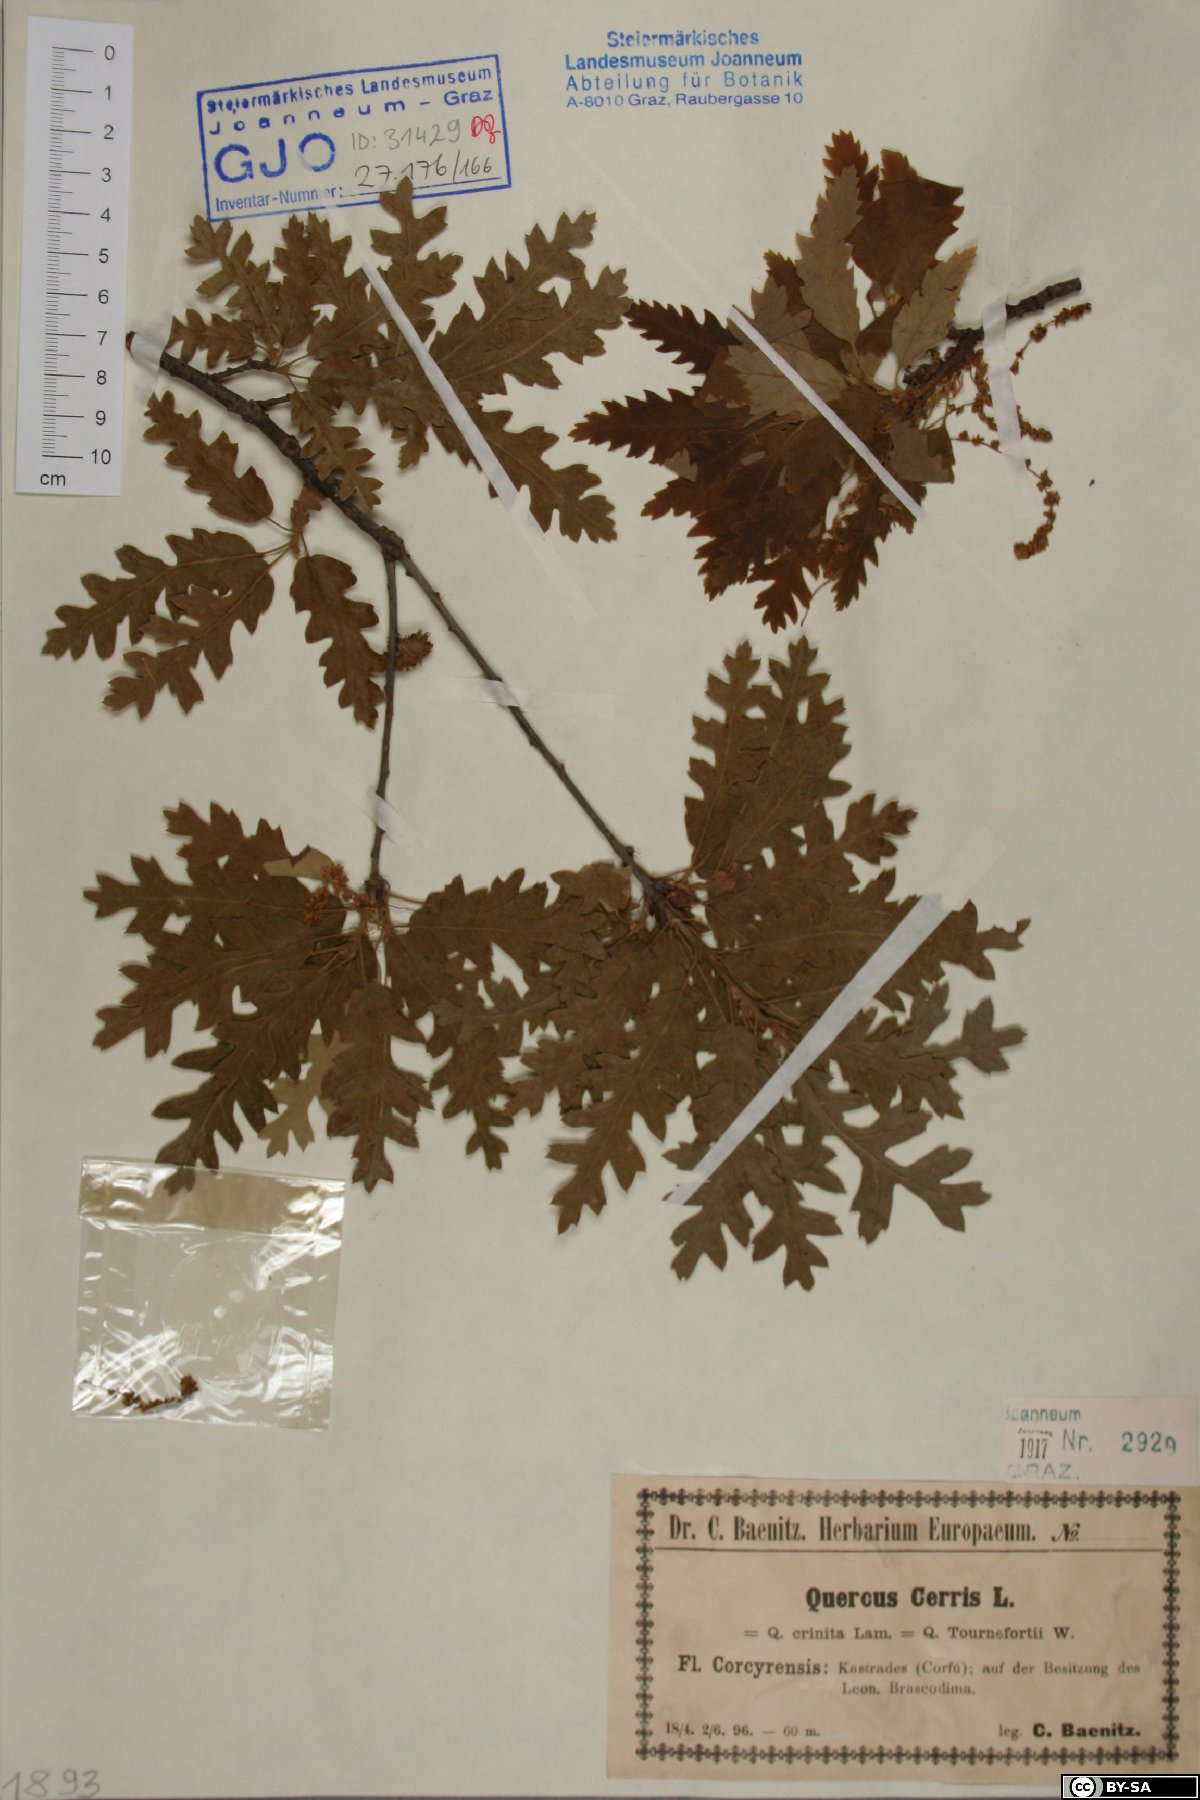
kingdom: Plantae
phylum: Tracheophyta
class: Magnoliopsida
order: Fagales
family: Fagaceae
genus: Quercus
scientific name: Quercus cerris
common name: Turkey oak
